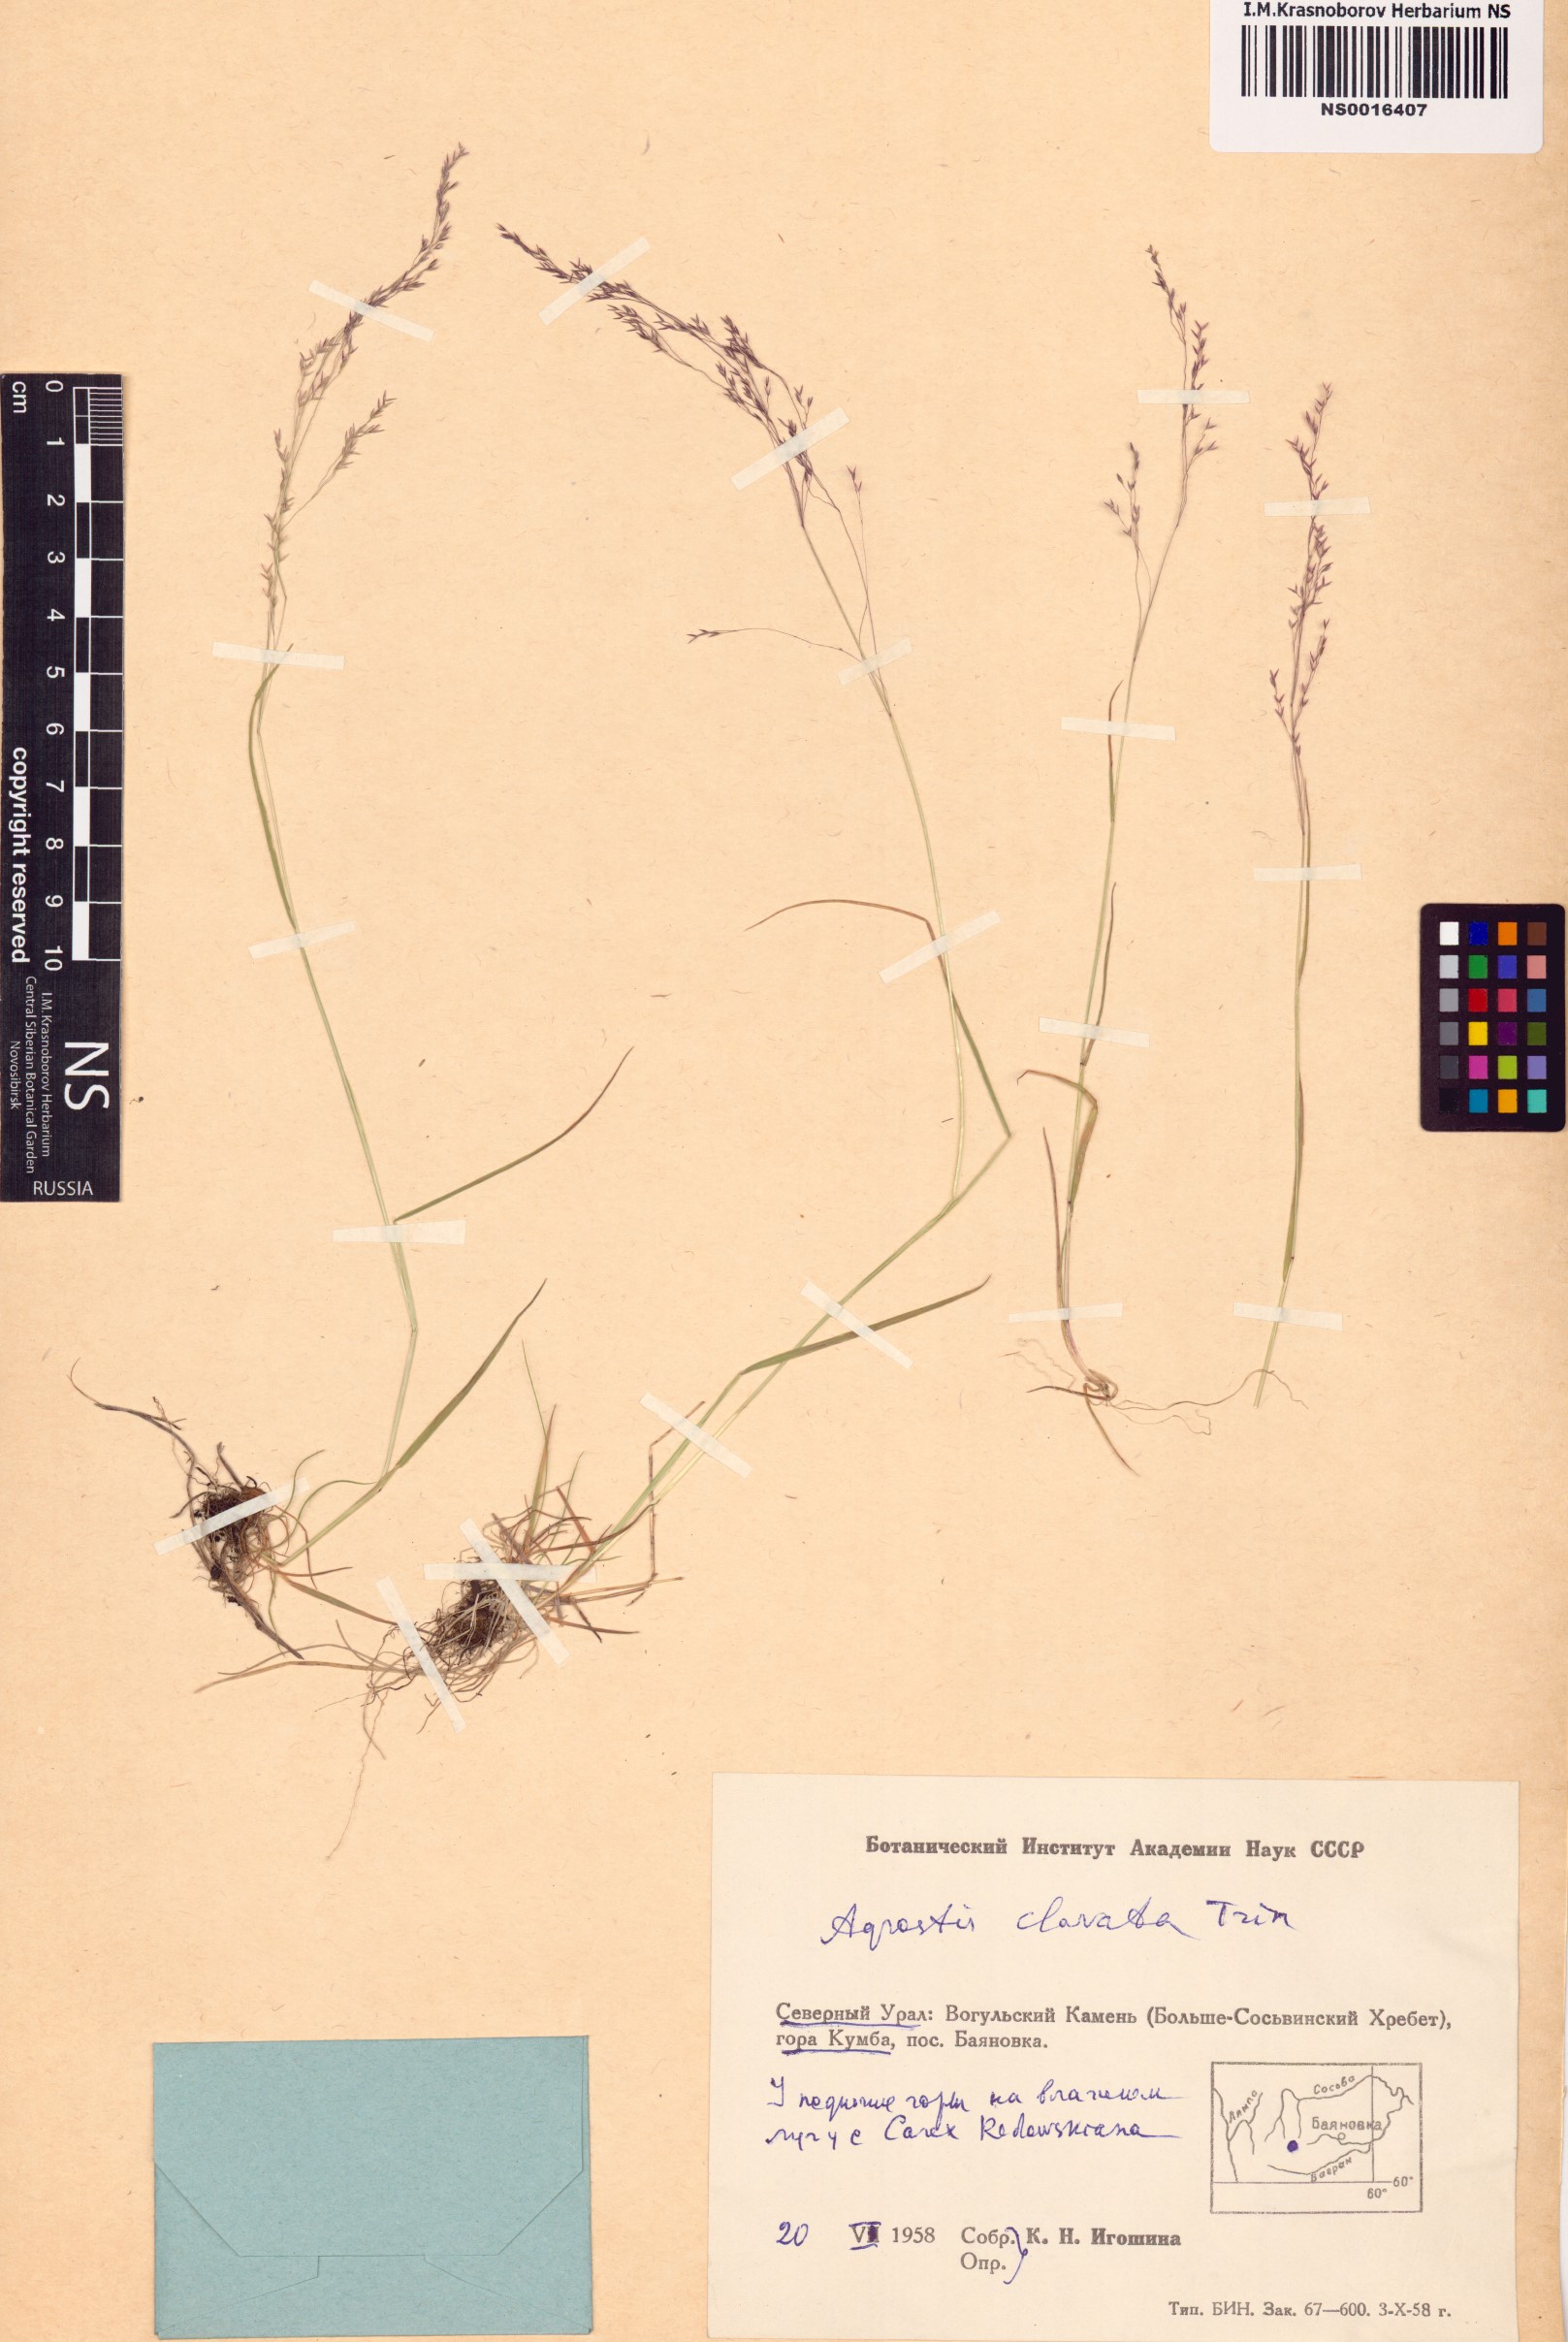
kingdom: Plantae
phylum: Tracheophyta
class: Liliopsida
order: Poales
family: Poaceae
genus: Agrostis
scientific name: Agrostis clavata
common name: Clavate bent
